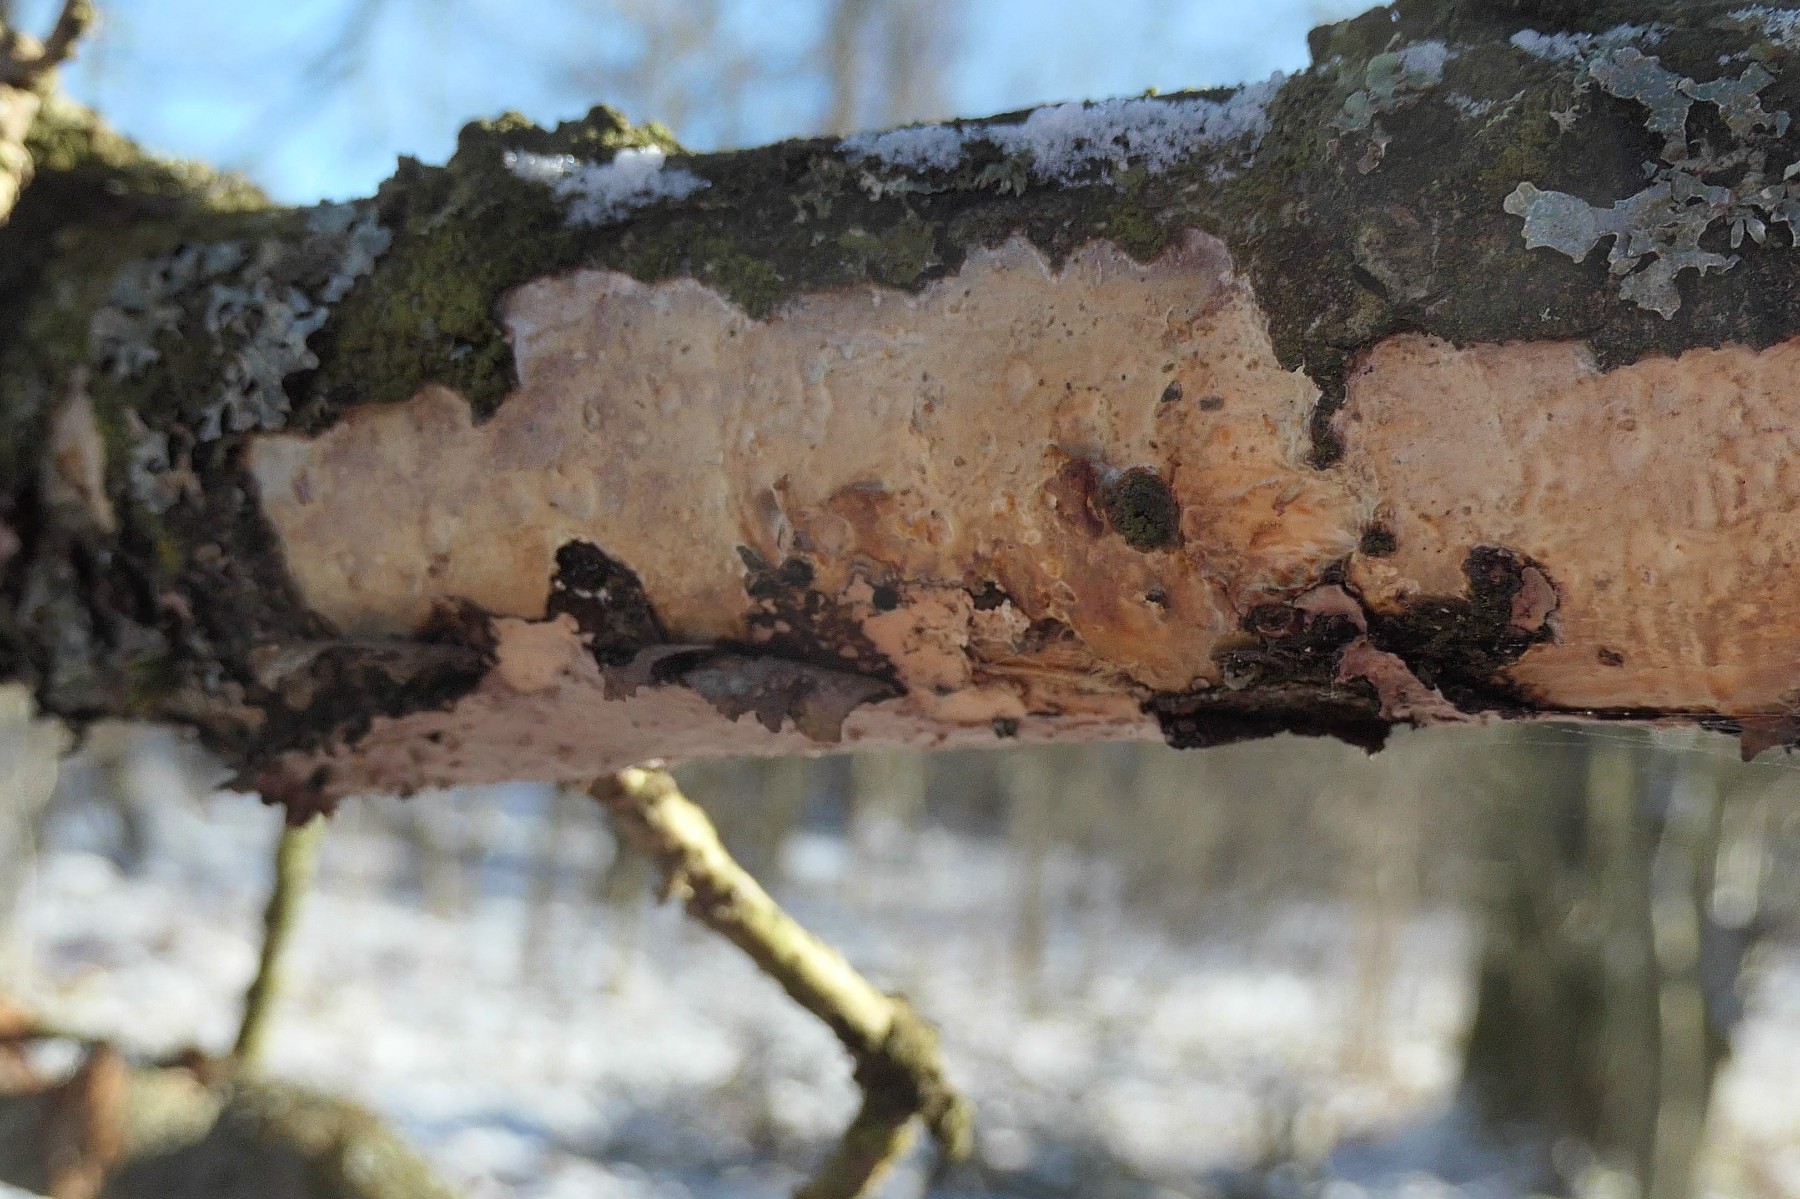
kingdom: Fungi
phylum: Basidiomycota
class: Agaricomycetes
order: Corticiales
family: Vuilleminiaceae
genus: Vuilleminia
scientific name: Vuilleminia comedens
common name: almindelig barksprænger
